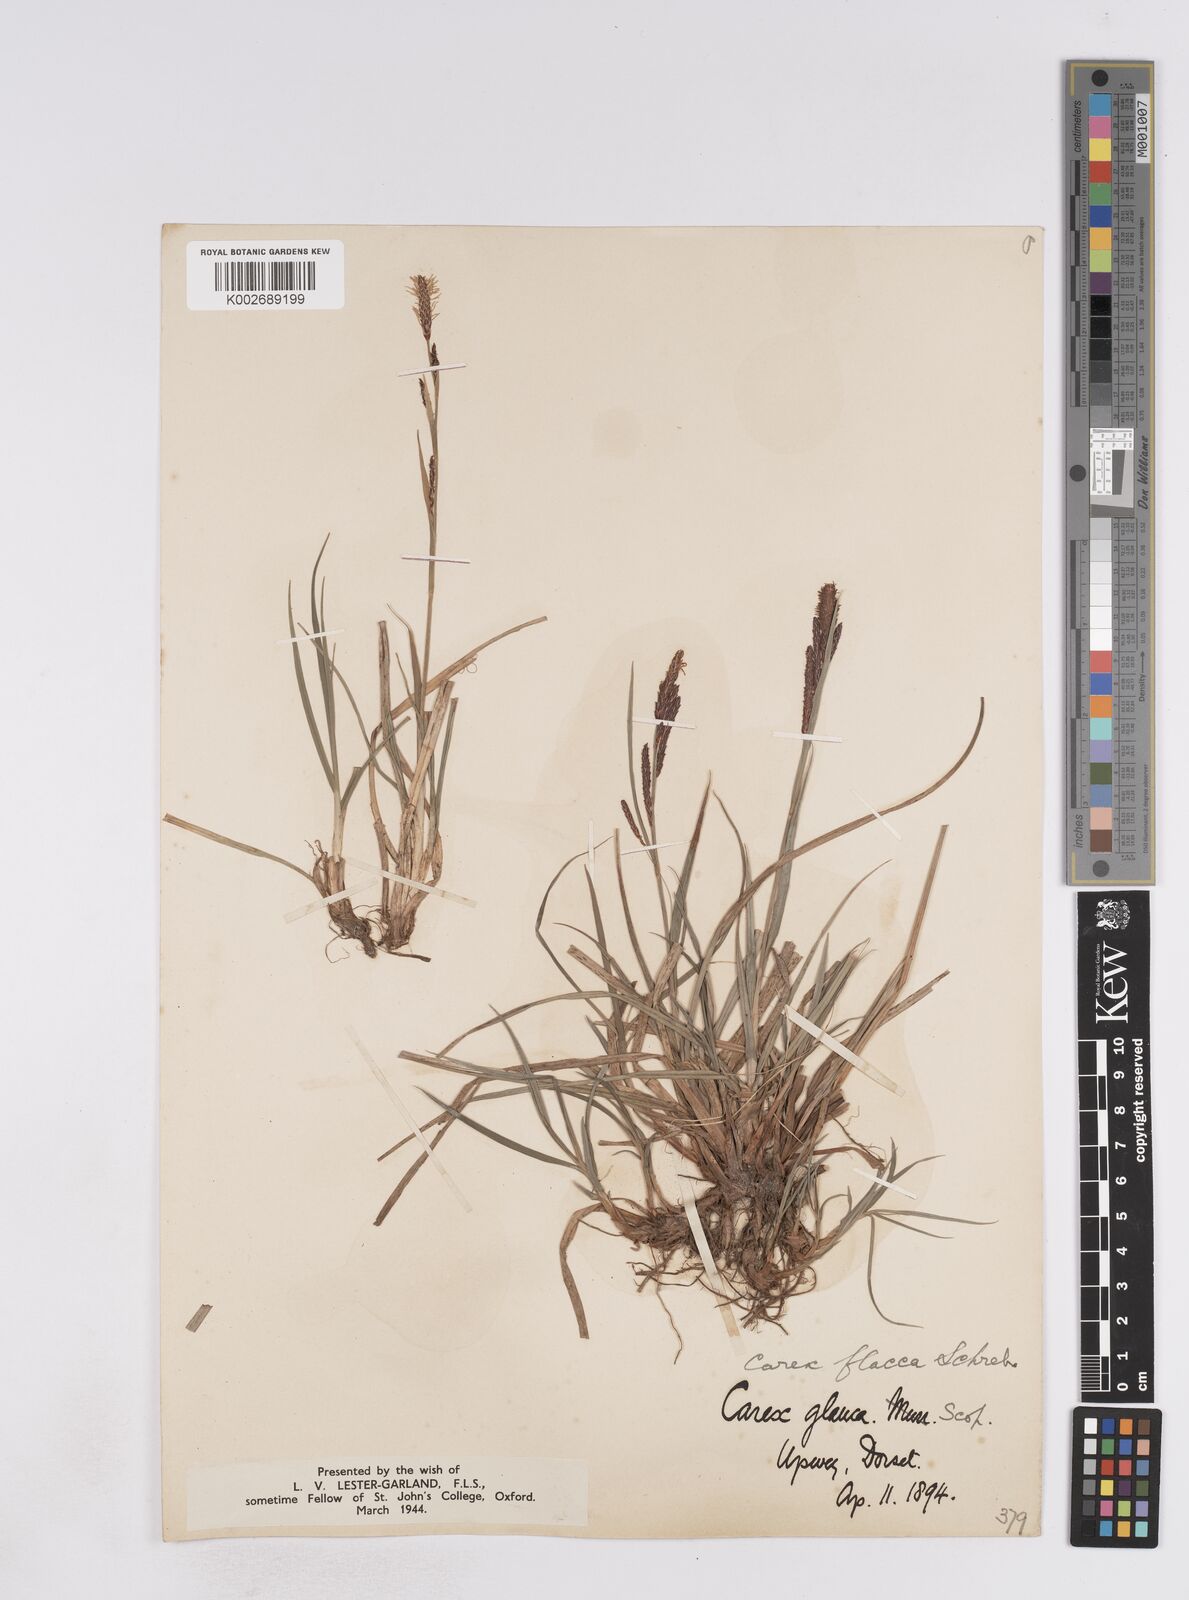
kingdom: Plantae
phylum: Tracheophyta
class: Liliopsida
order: Poales
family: Cyperaceae
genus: Carex
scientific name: Carex flacca
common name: Glaucous sedge
